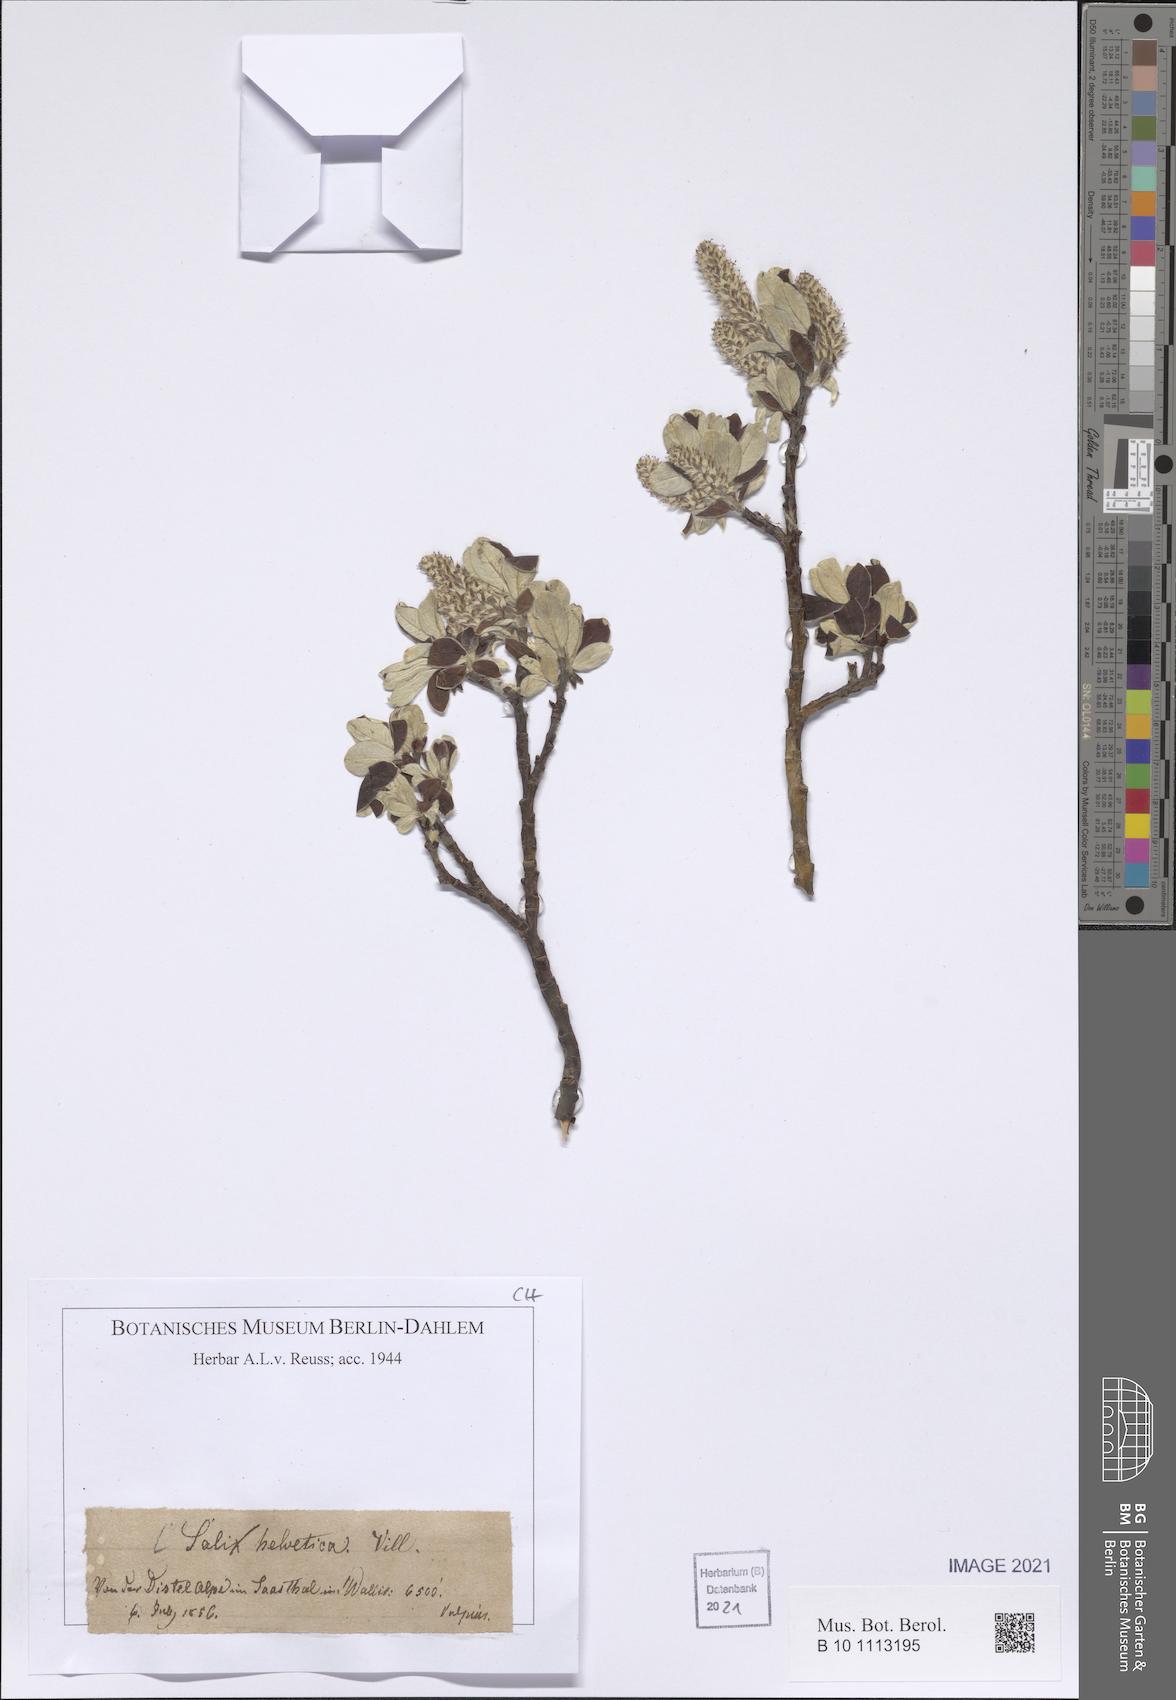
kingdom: Plantae
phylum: Tracheophyta
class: Magnoliopsida
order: Malpighiales
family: Salicaceae
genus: Salix
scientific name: Salix helvetica
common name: Swiss willow
